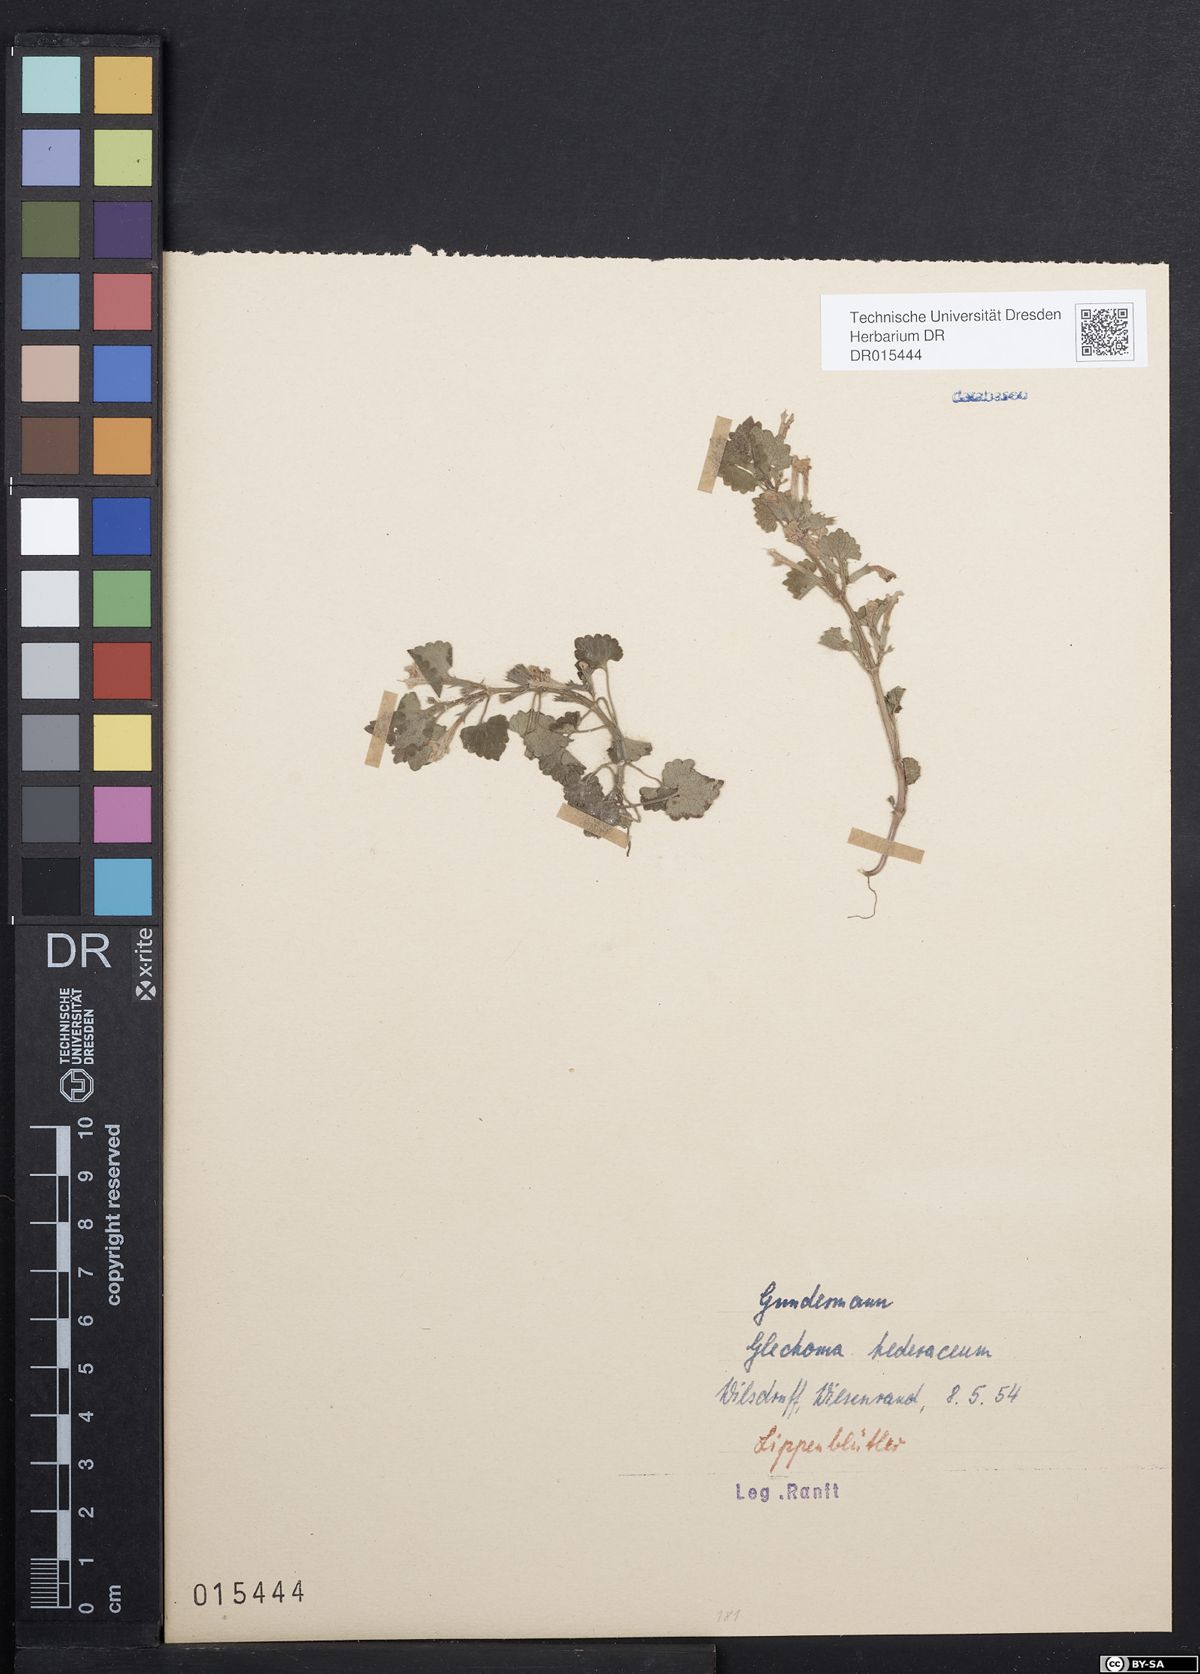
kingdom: Plantae
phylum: Tracheophyta
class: Magnoliopsida
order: Lamiales
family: Lamiaceae
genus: Glechoma
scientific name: Glechoma hederacea
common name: Ground ivy
